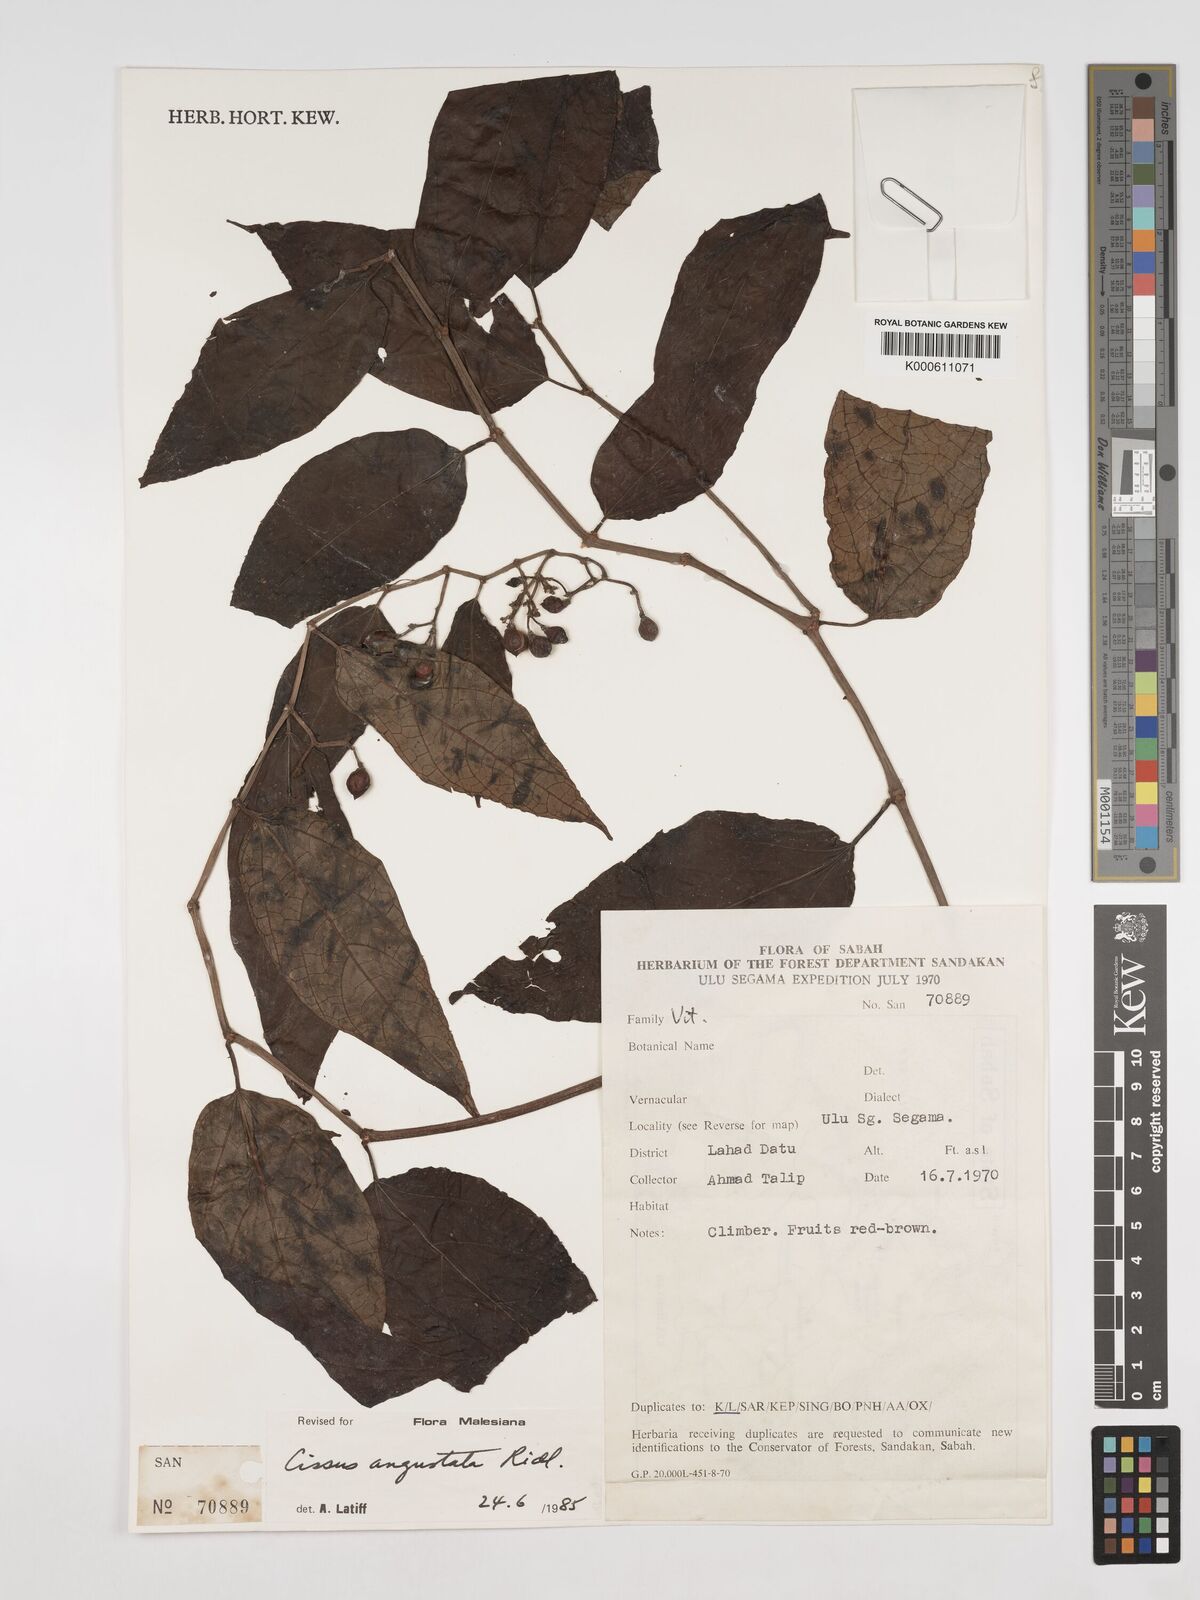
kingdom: Plantae
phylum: Tracheophyta
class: Magnoliopsida
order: Vitales
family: Vitaceae
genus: Cissus
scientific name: Cissus
